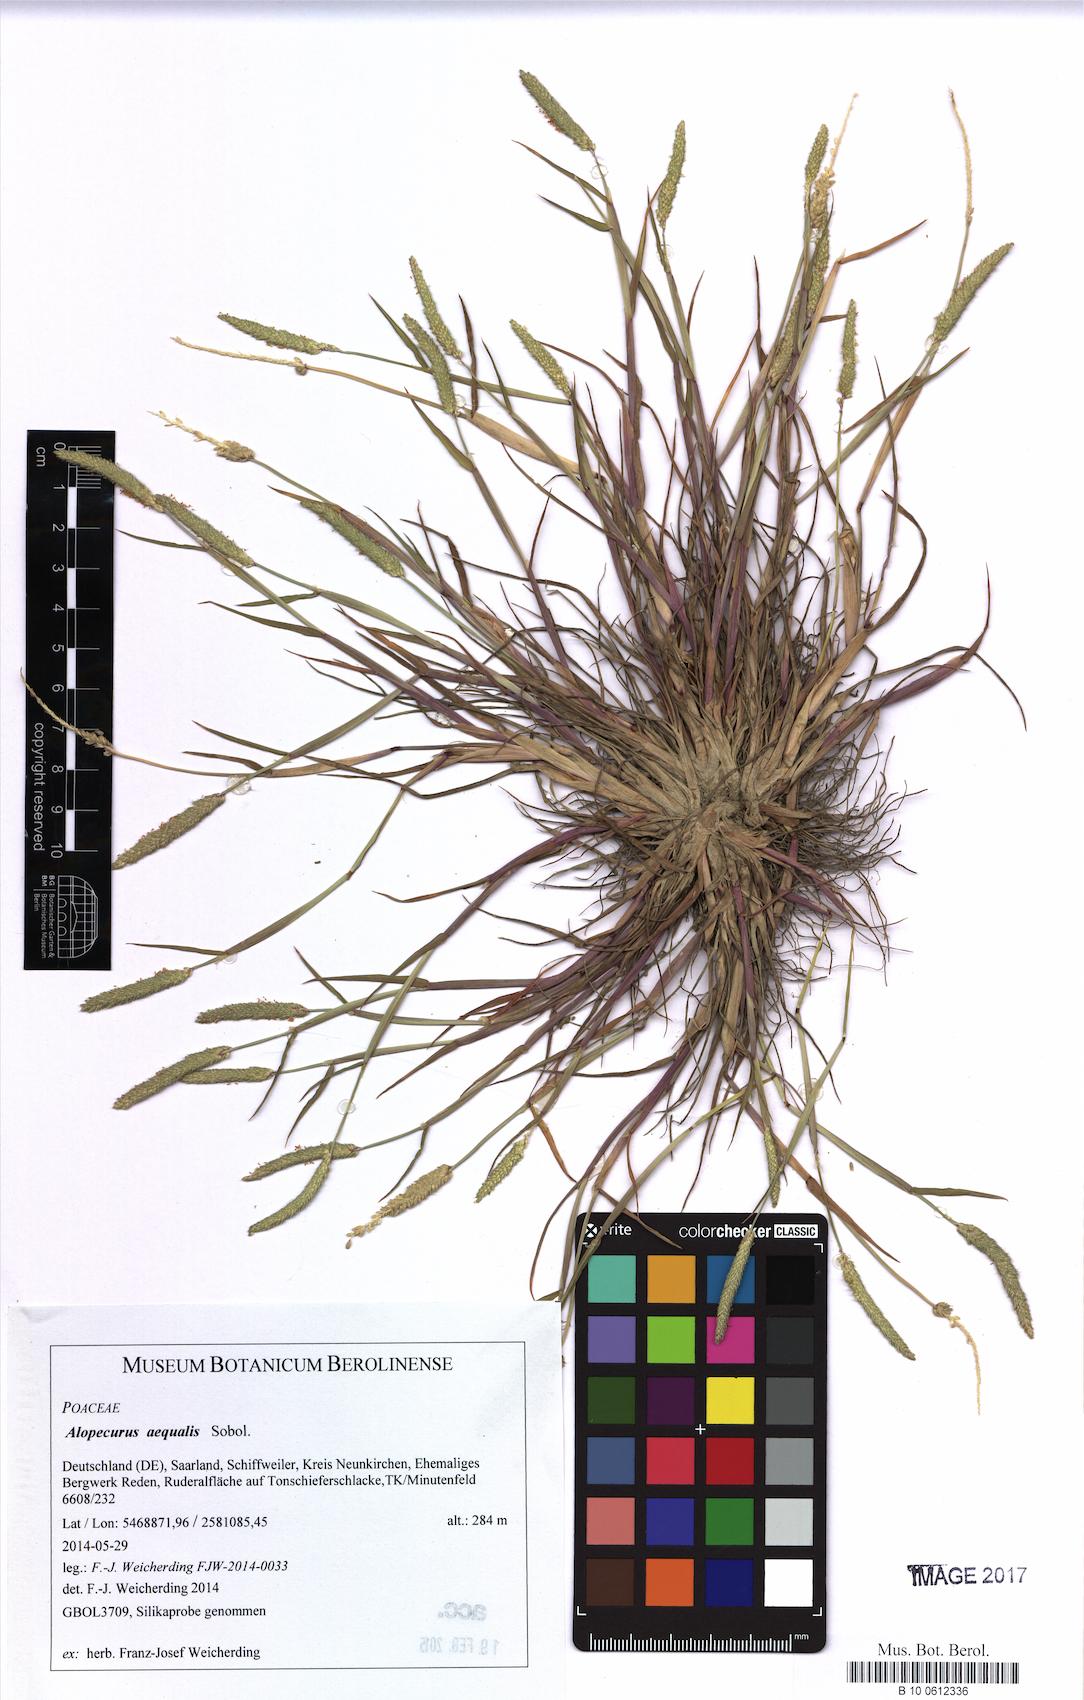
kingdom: Plantae
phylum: Tracheophyta
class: Liliopsida
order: Poales
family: Poaceae
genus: Alopecurus
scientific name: Alopecurus aequalis
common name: Orange foxtail
